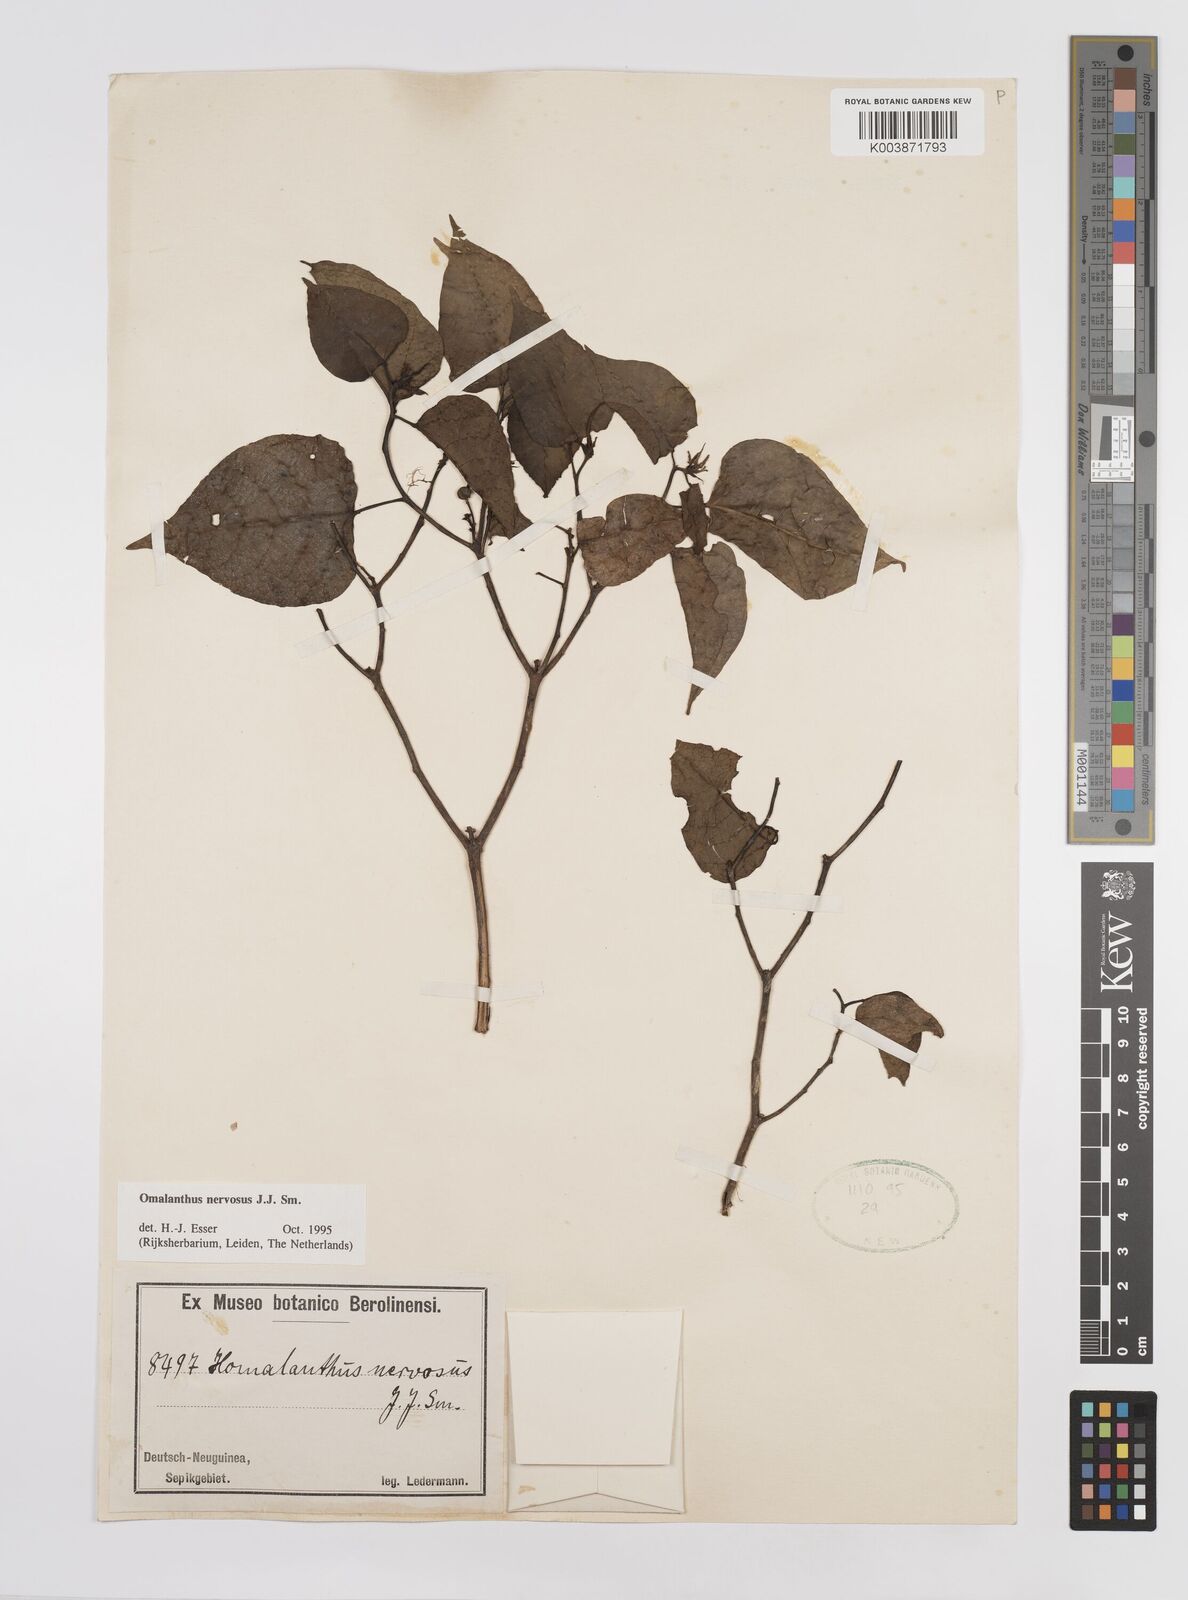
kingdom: Plantae
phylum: Tracheophyta
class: Magnoliopsida
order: Malpighiales
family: Euphorbiaceae
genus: Homalanthus
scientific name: Homalanthus nervosus
